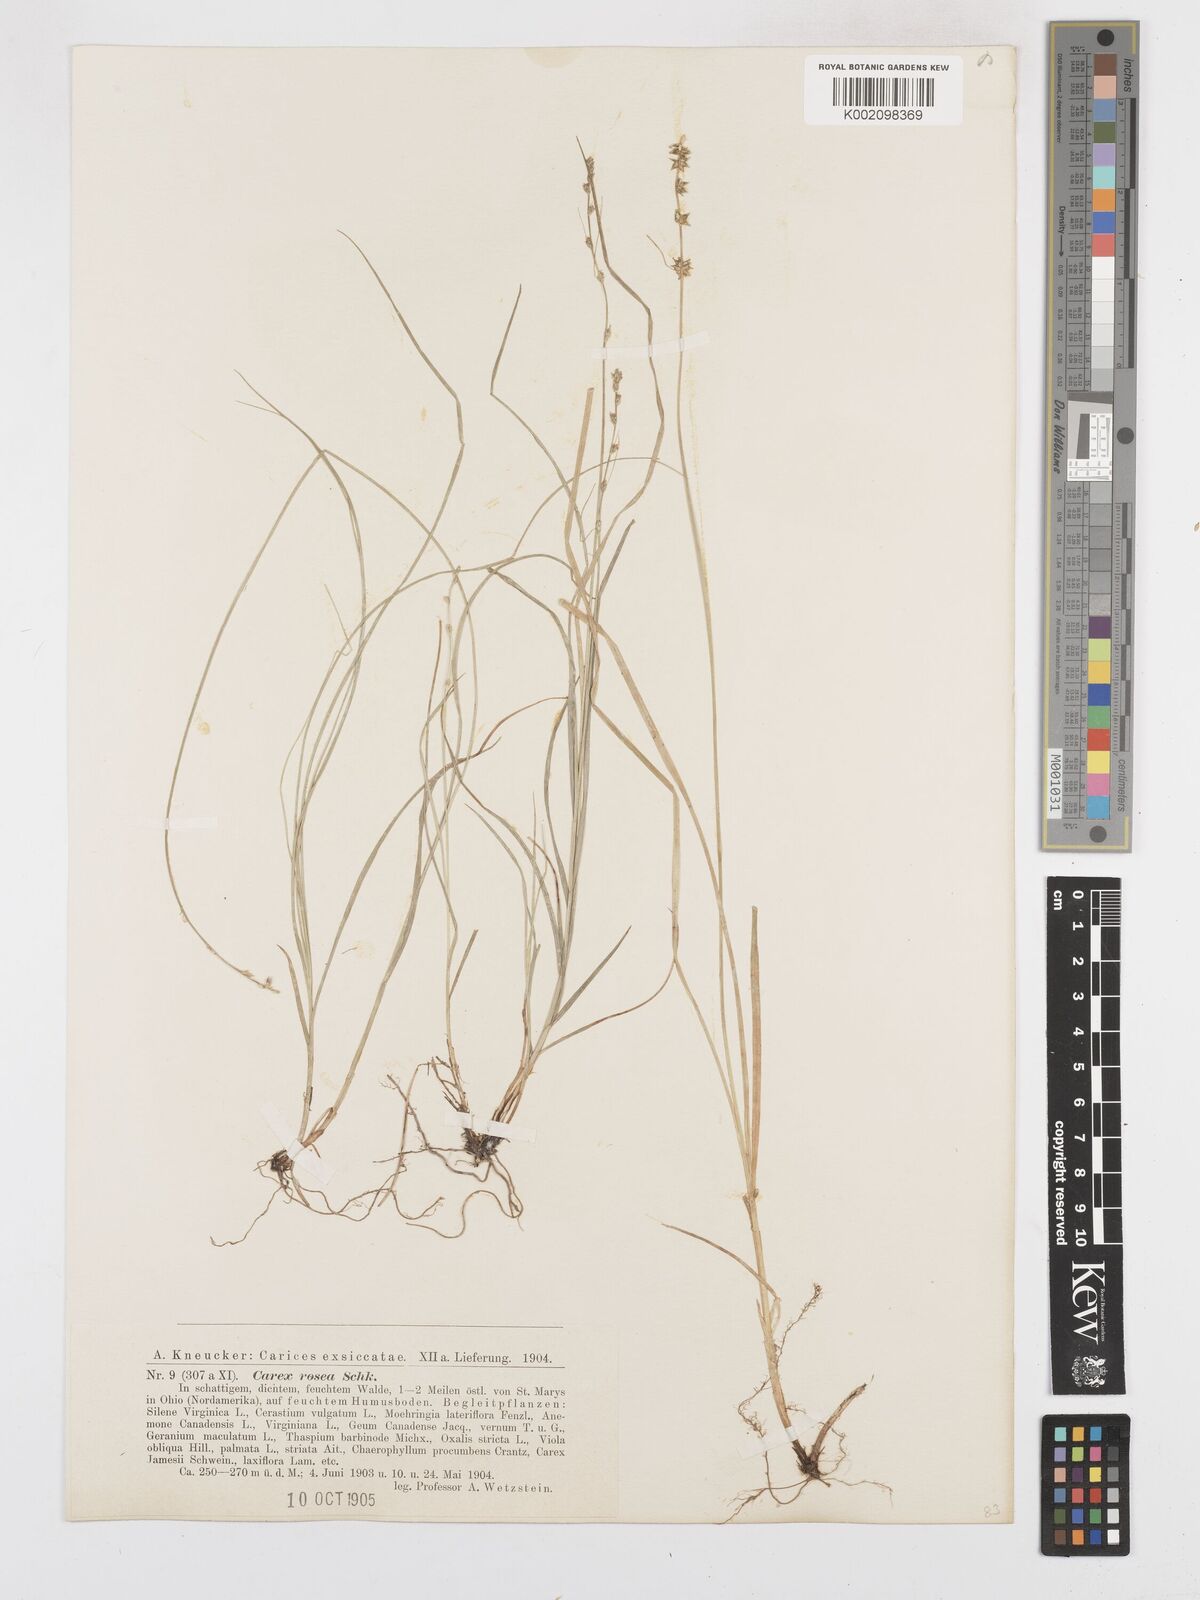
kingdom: Plantae
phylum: Tracheophyta
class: Liliopsida
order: Poales
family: Cyperaceae
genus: Carex
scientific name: Carex rosea
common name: Curly-styled wood sedge
